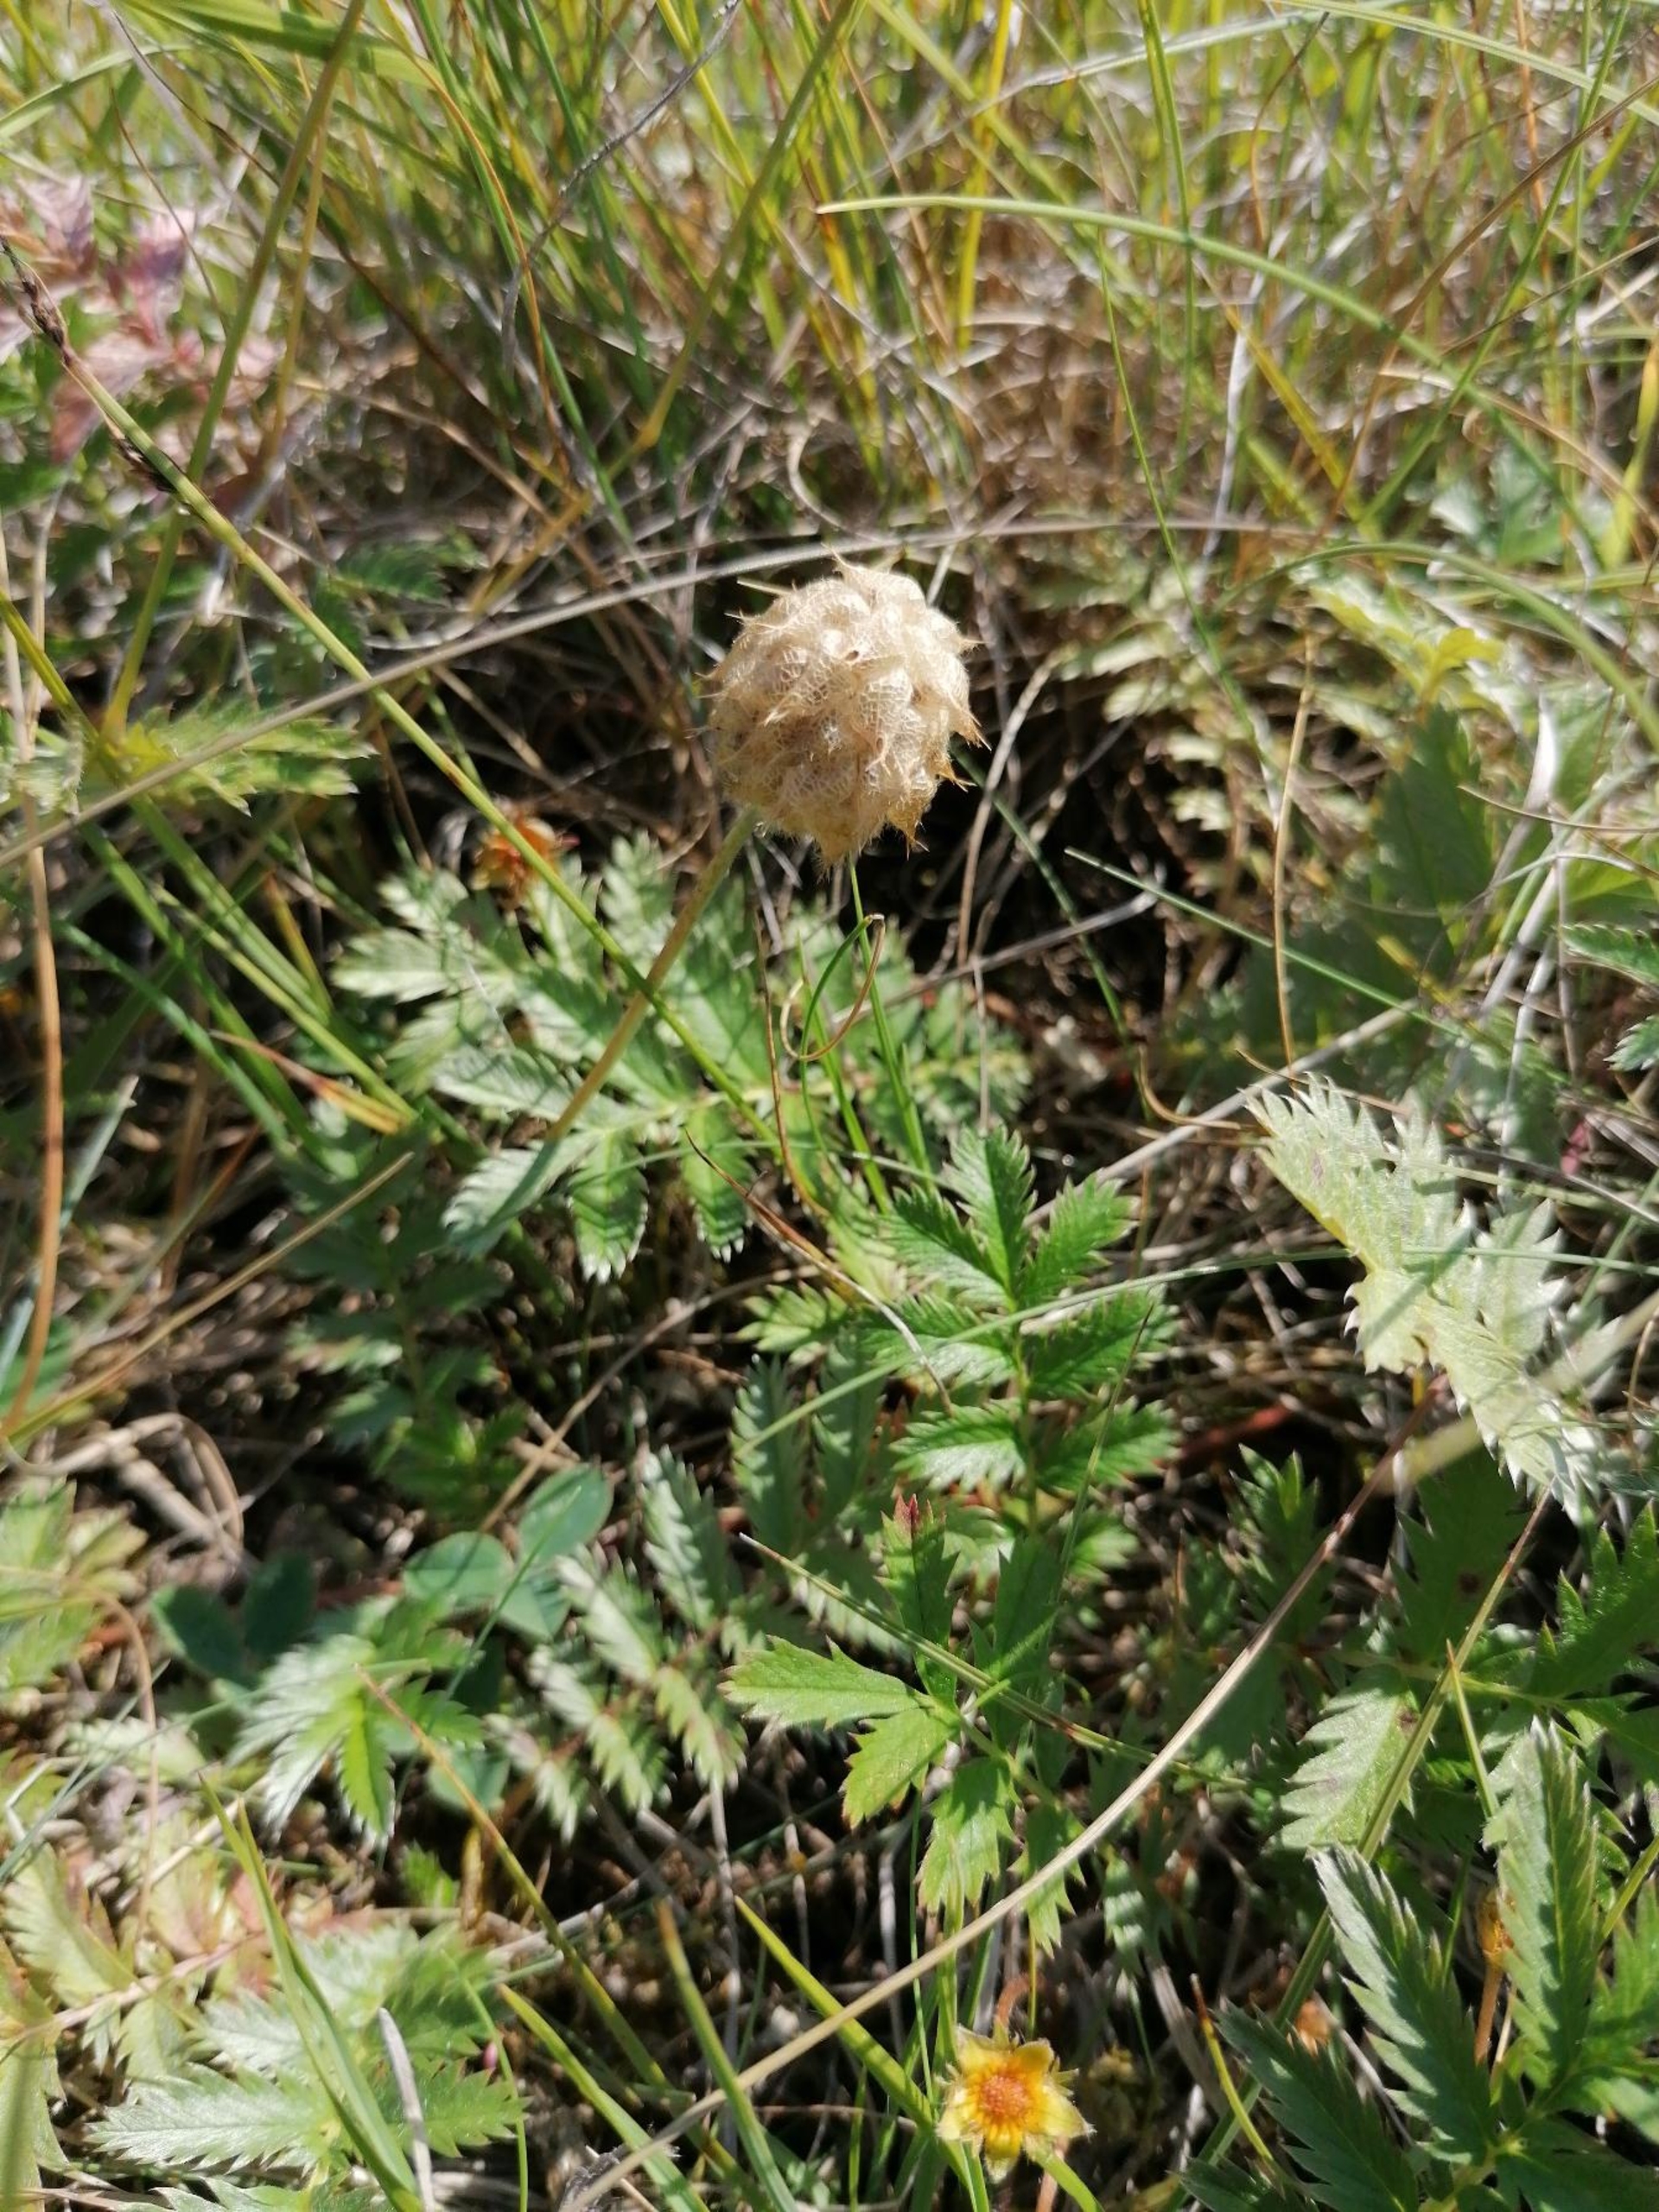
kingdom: Plantae
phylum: Tracheophyta
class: Magnoliopsida
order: Fabales
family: Fabaceae
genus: Trifolium
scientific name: Trifolium fragiferum
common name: Jordbær-kløver
